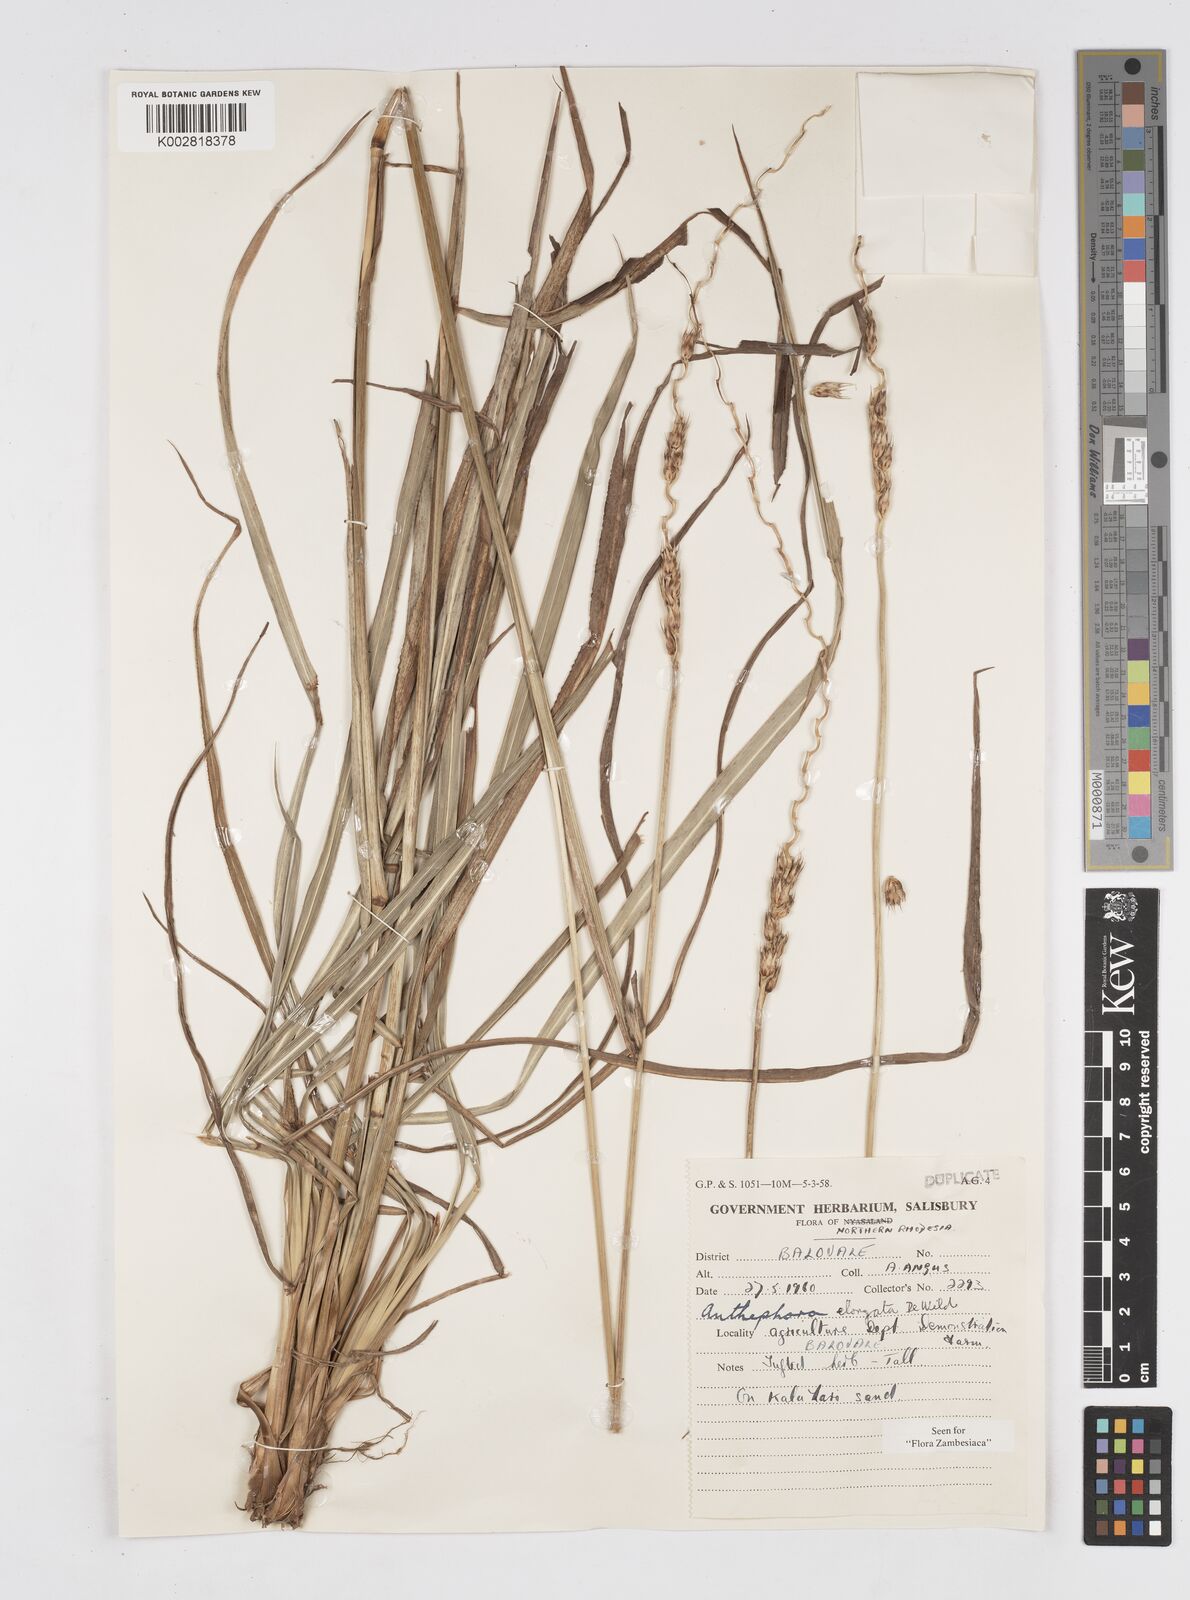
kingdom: Plantae
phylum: Tracheophyta
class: Liliopsida
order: Poales
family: Poaceae
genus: Anthephora
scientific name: Anthephora elongata
